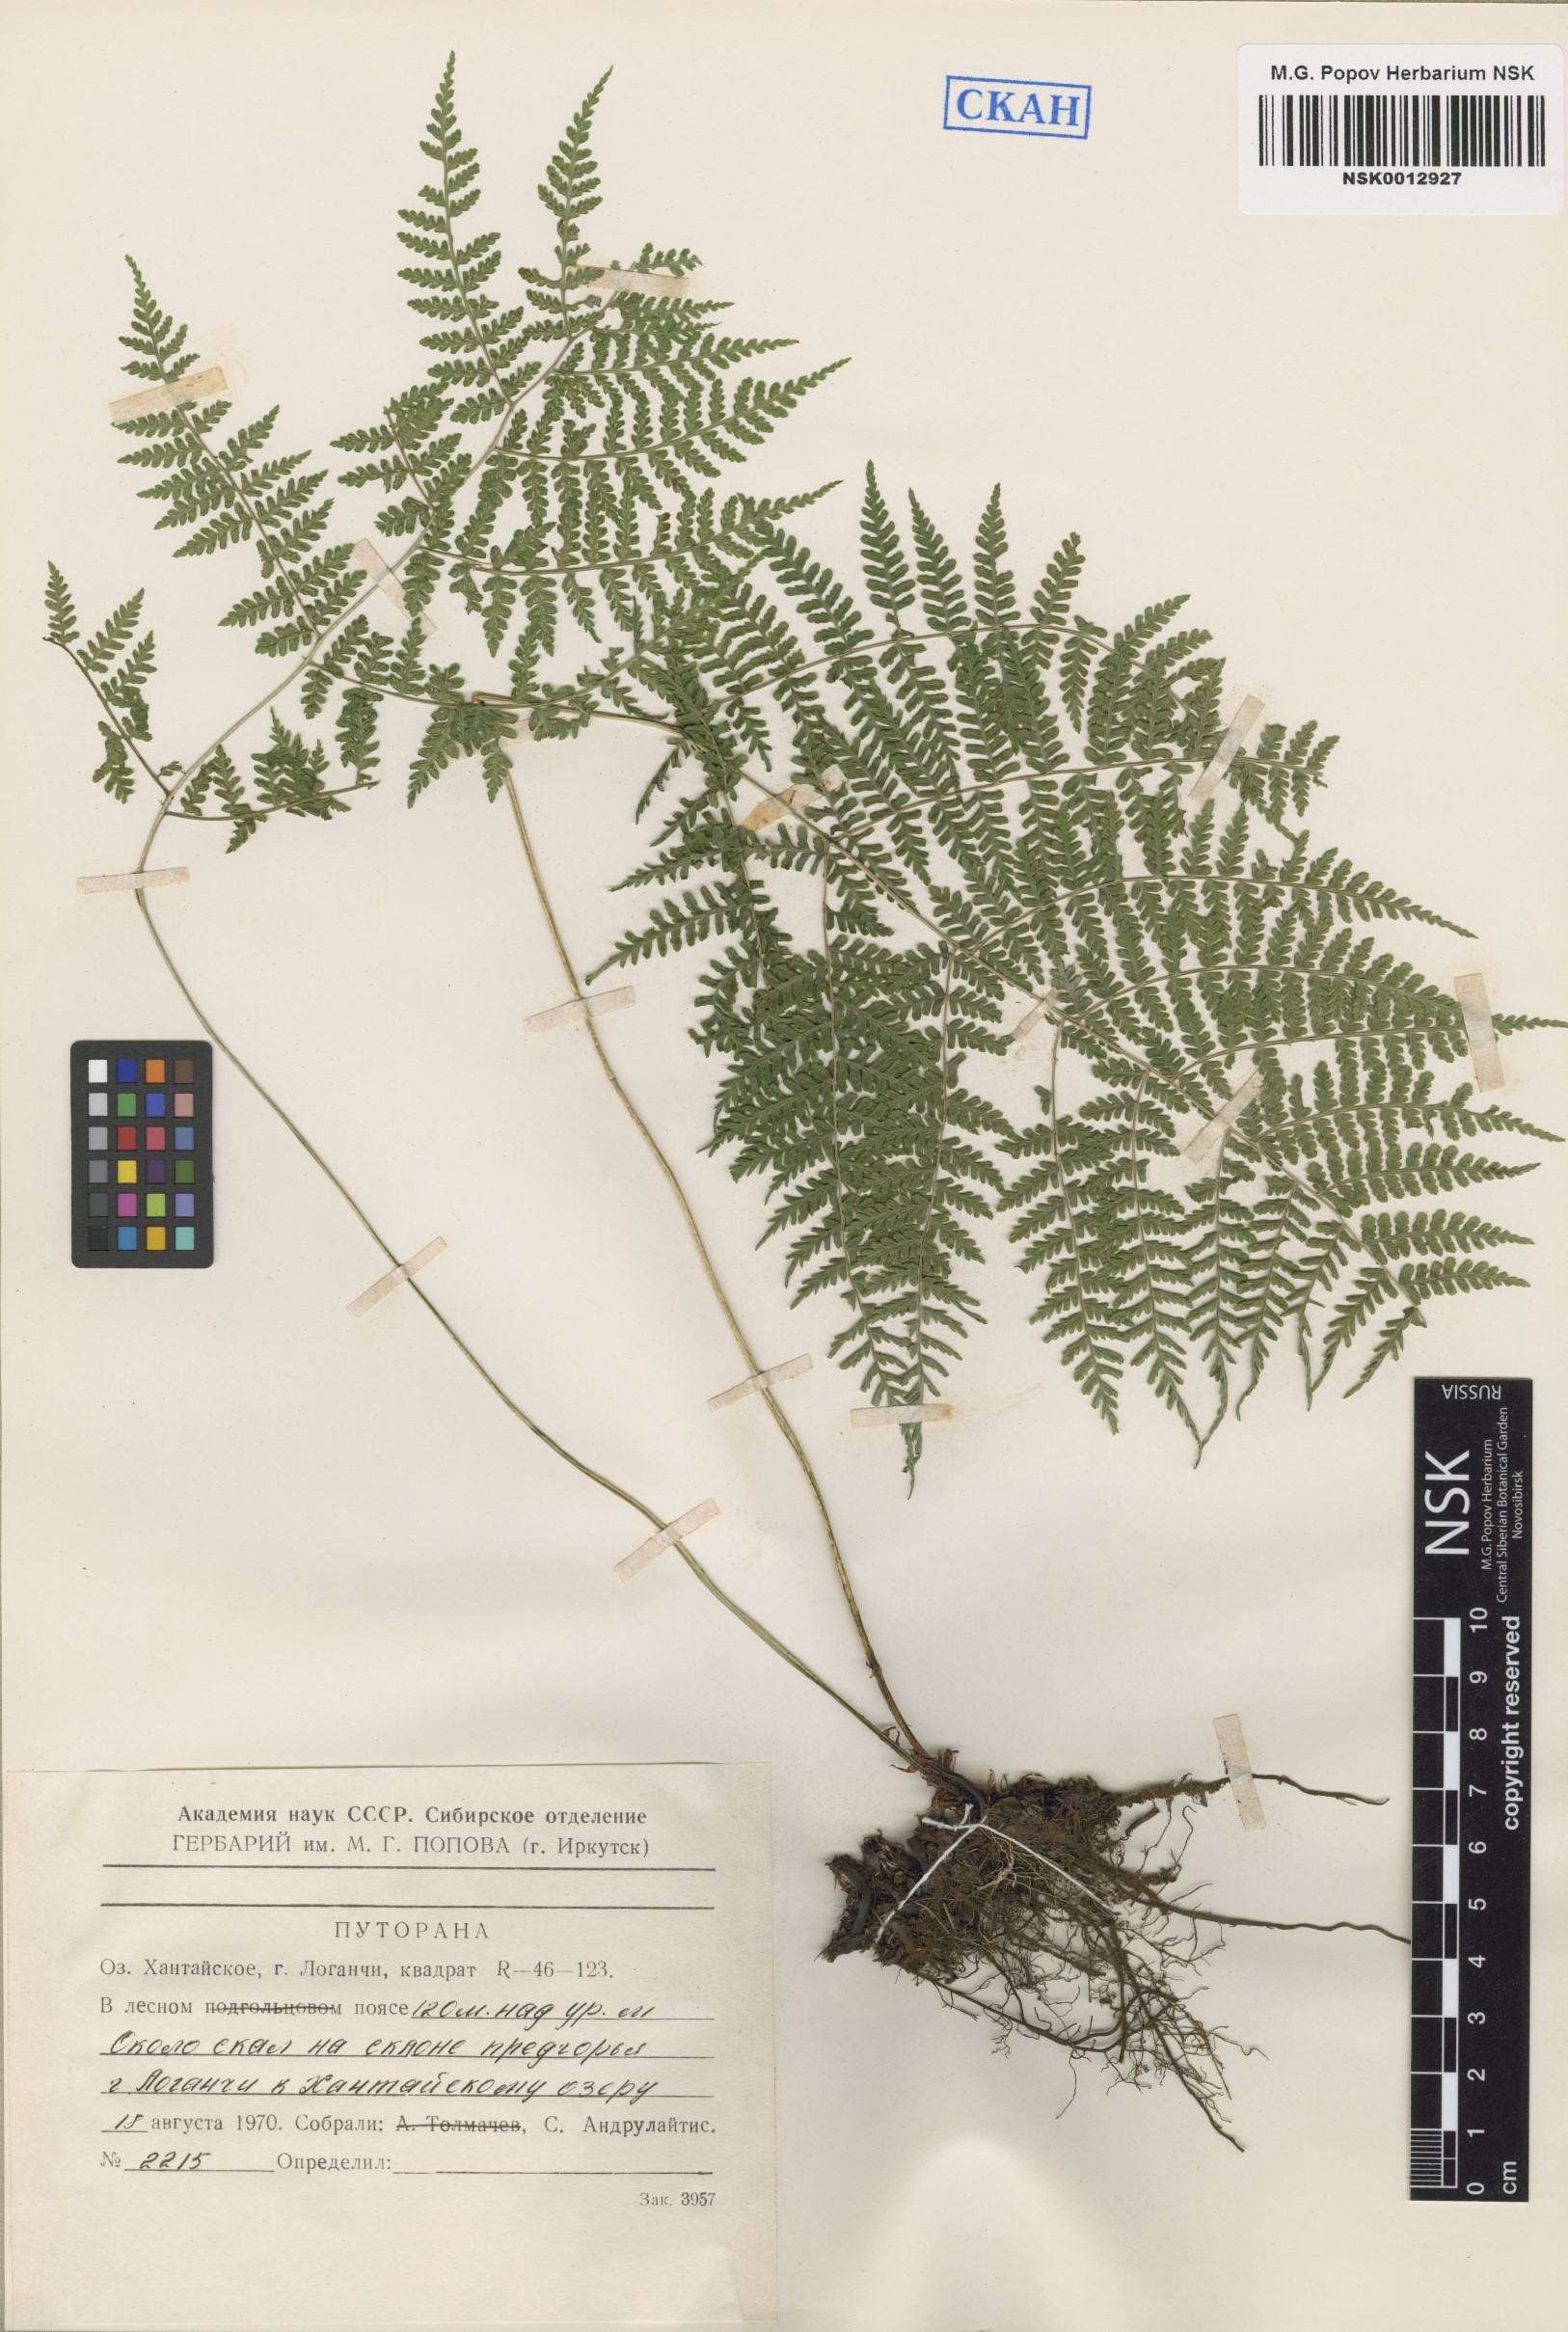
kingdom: Plantae
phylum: Tracheophyta
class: Polypodiopsida
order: Polypodiales
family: Athyriaceae
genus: Diplazium
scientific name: Diplazium sibiricum
